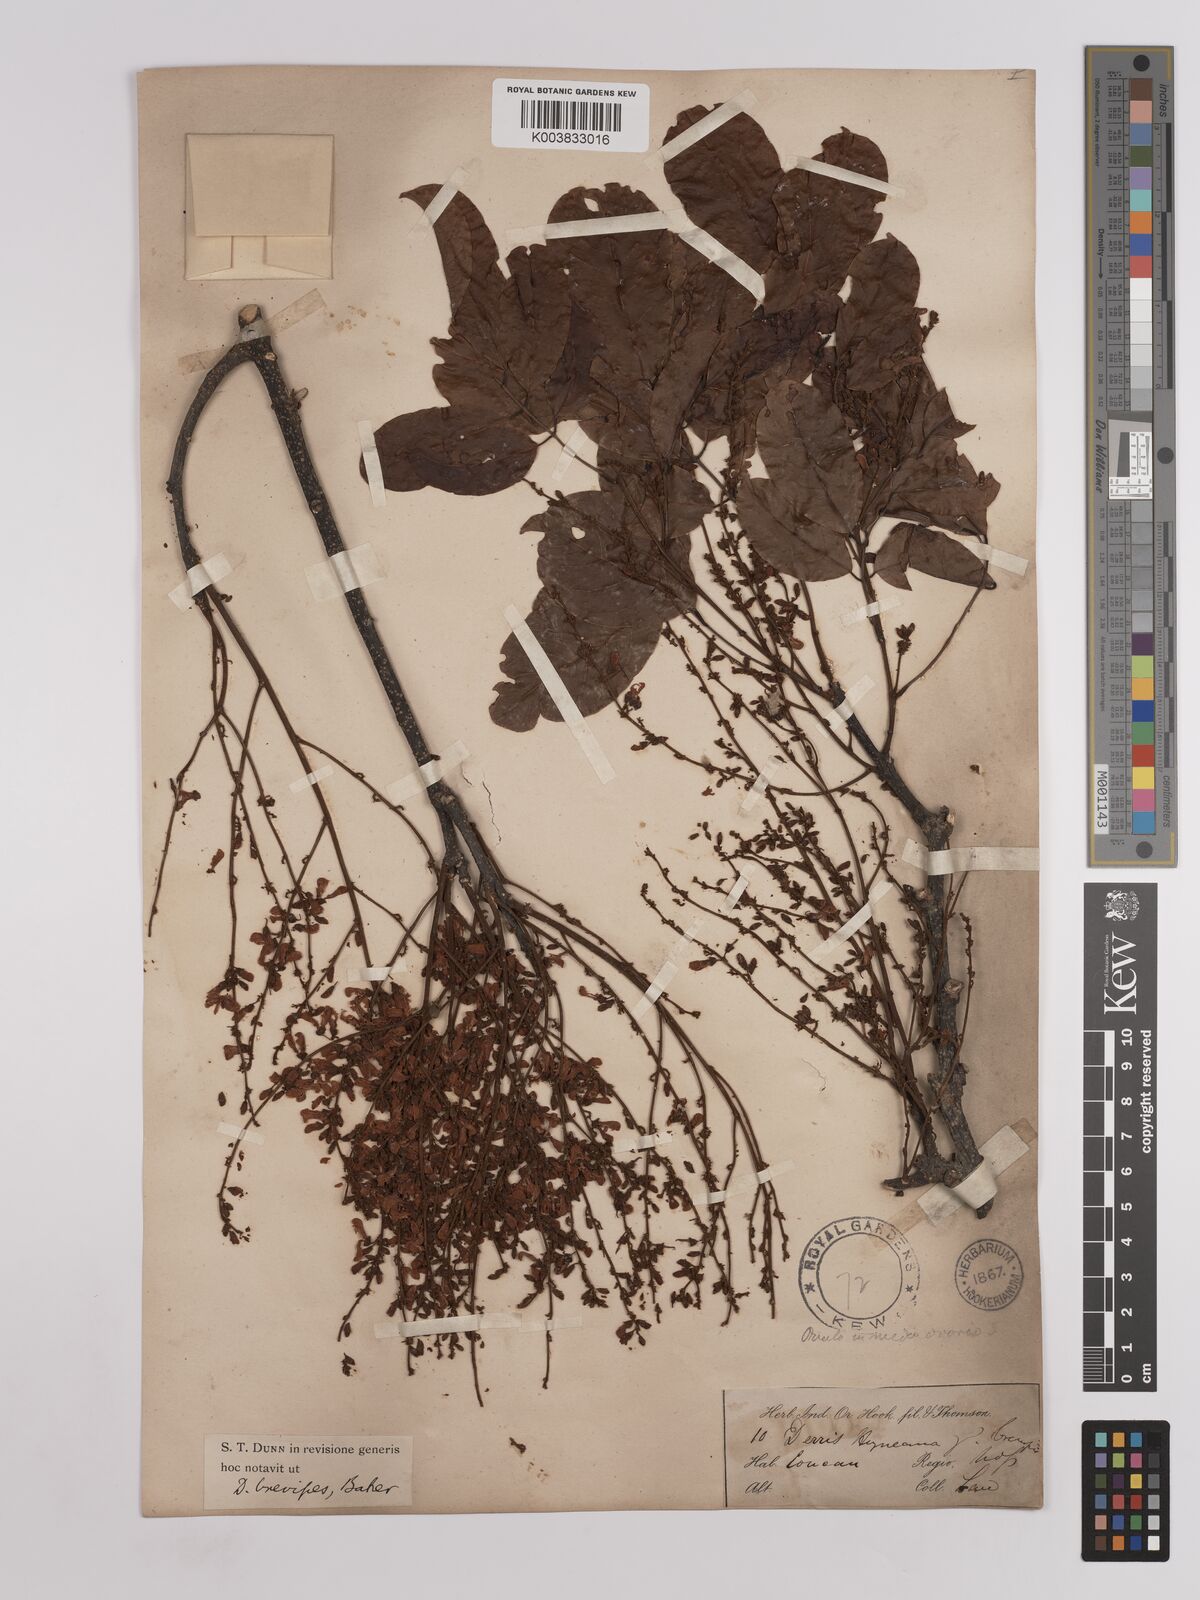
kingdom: Plantae
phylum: Tracheophyta
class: Magnoliopsida
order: Fabales
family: Fabaceae
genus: Derris
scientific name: Derris brevipes
